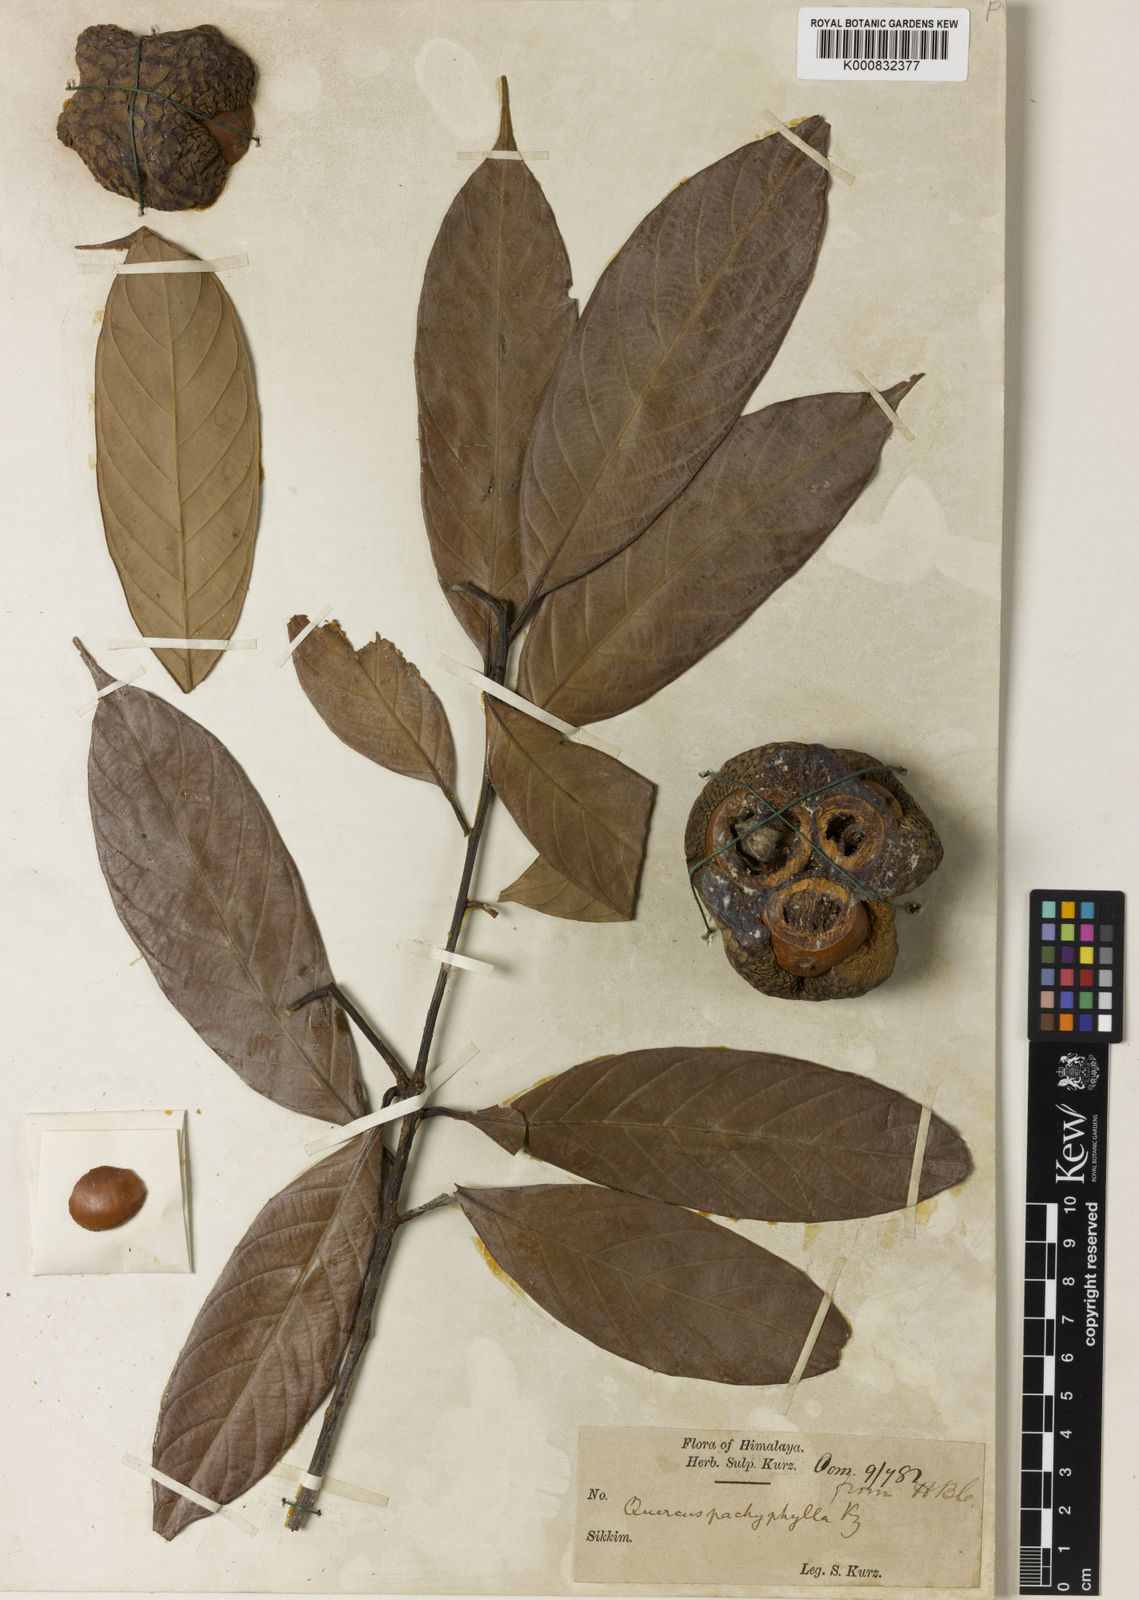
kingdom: Plantae
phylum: Tracheophyta
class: Magnoliopsida
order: Fagales
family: Fagaceae
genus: Lithocarpus
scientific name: Lithocarpus pachyphyllus
